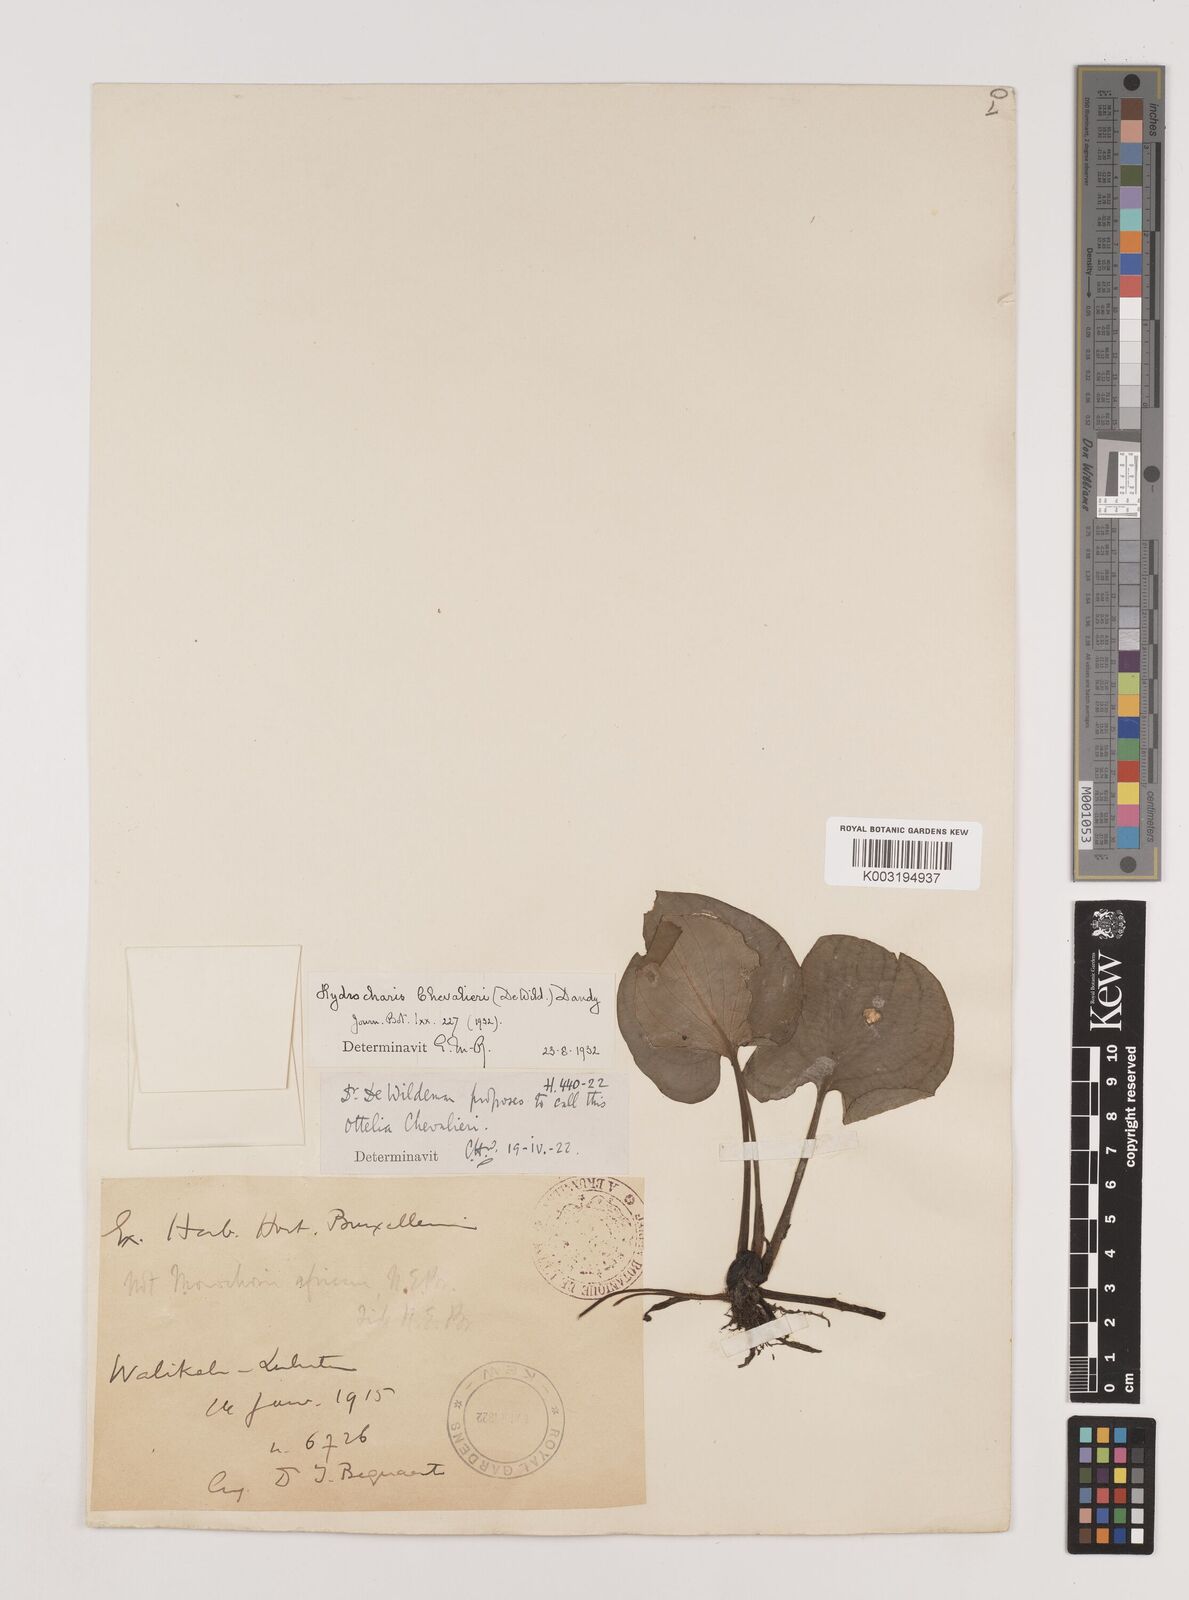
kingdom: Plantae
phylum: Tracheophyta
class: Liliopsida
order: Alismatales
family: Hydrocharitaceae
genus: Hydrocharis
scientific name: Hydrocharis chevalieri
